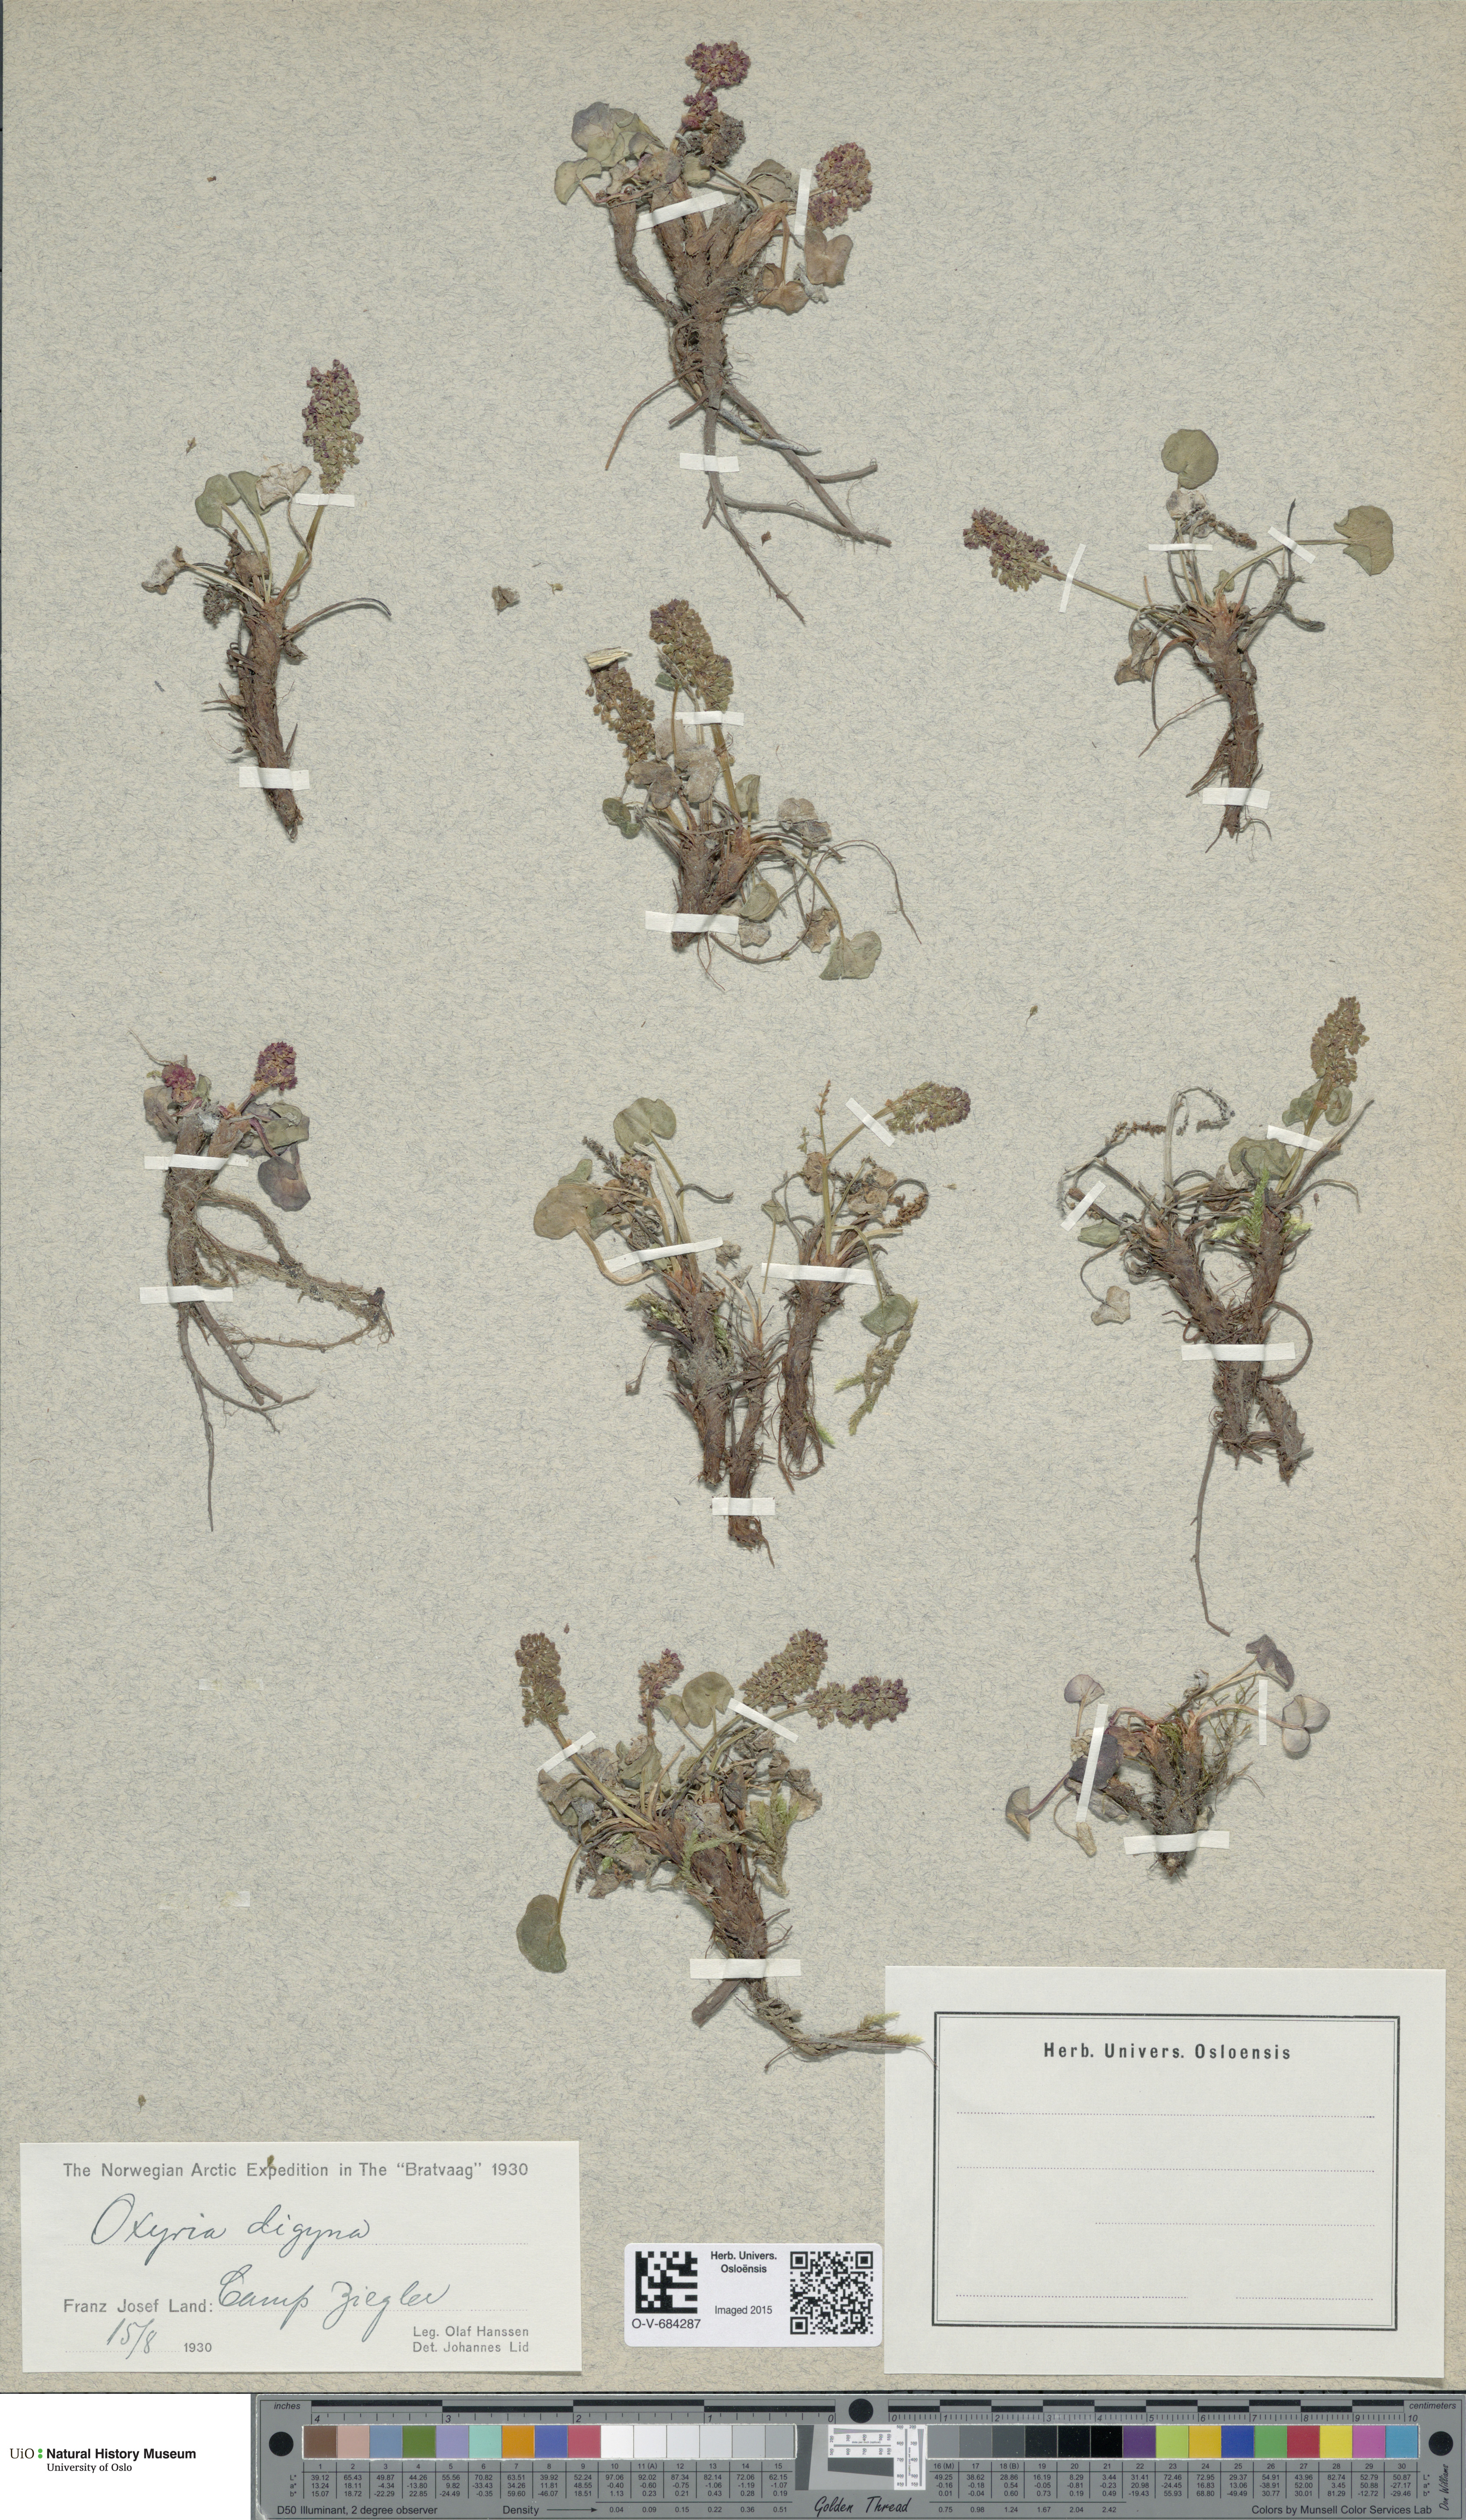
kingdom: Plantae
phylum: Tracheophyta
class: Magnoliopsida
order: Caryophyllales
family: Polygonaceae
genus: Oxyria
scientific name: Oxyria digyna
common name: Alpine mountain-sorrel
